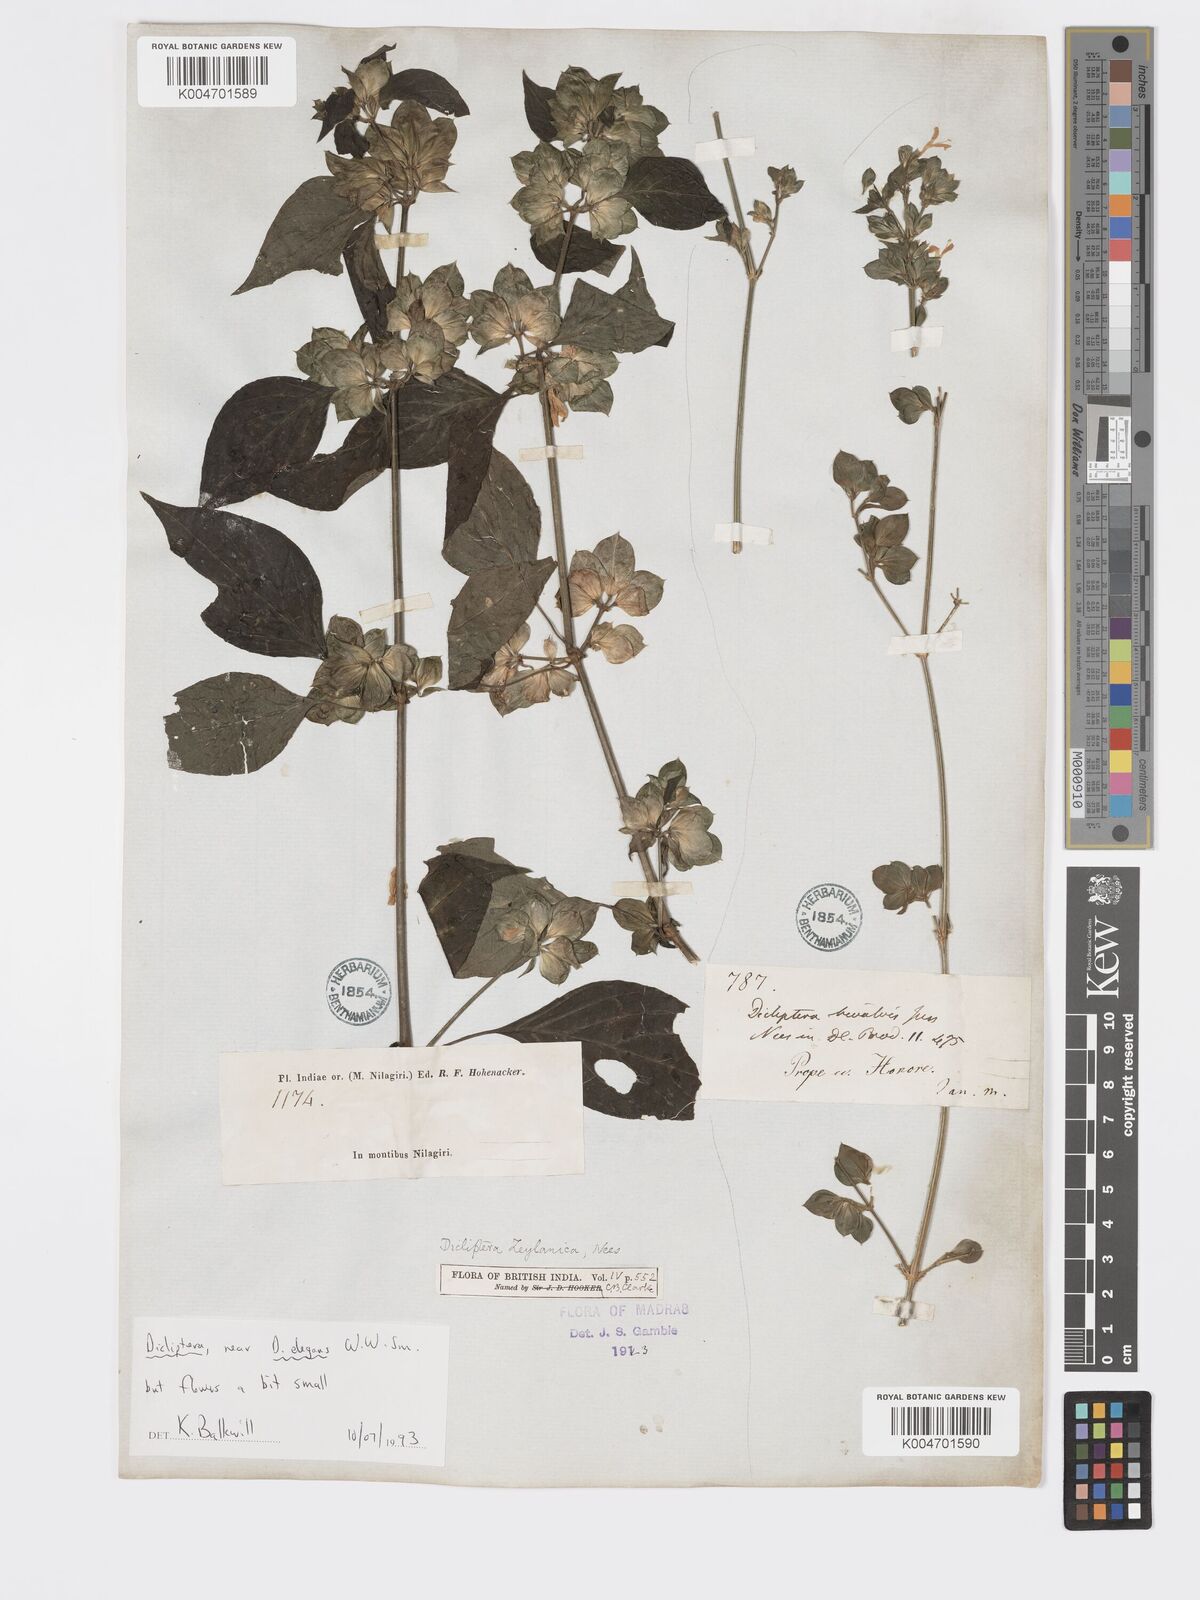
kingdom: Plantae
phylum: Tracheophyta
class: Magnoliopsida
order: Lamiales
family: Acanthaceae
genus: Dicliptera
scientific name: Dicliptera foetida
